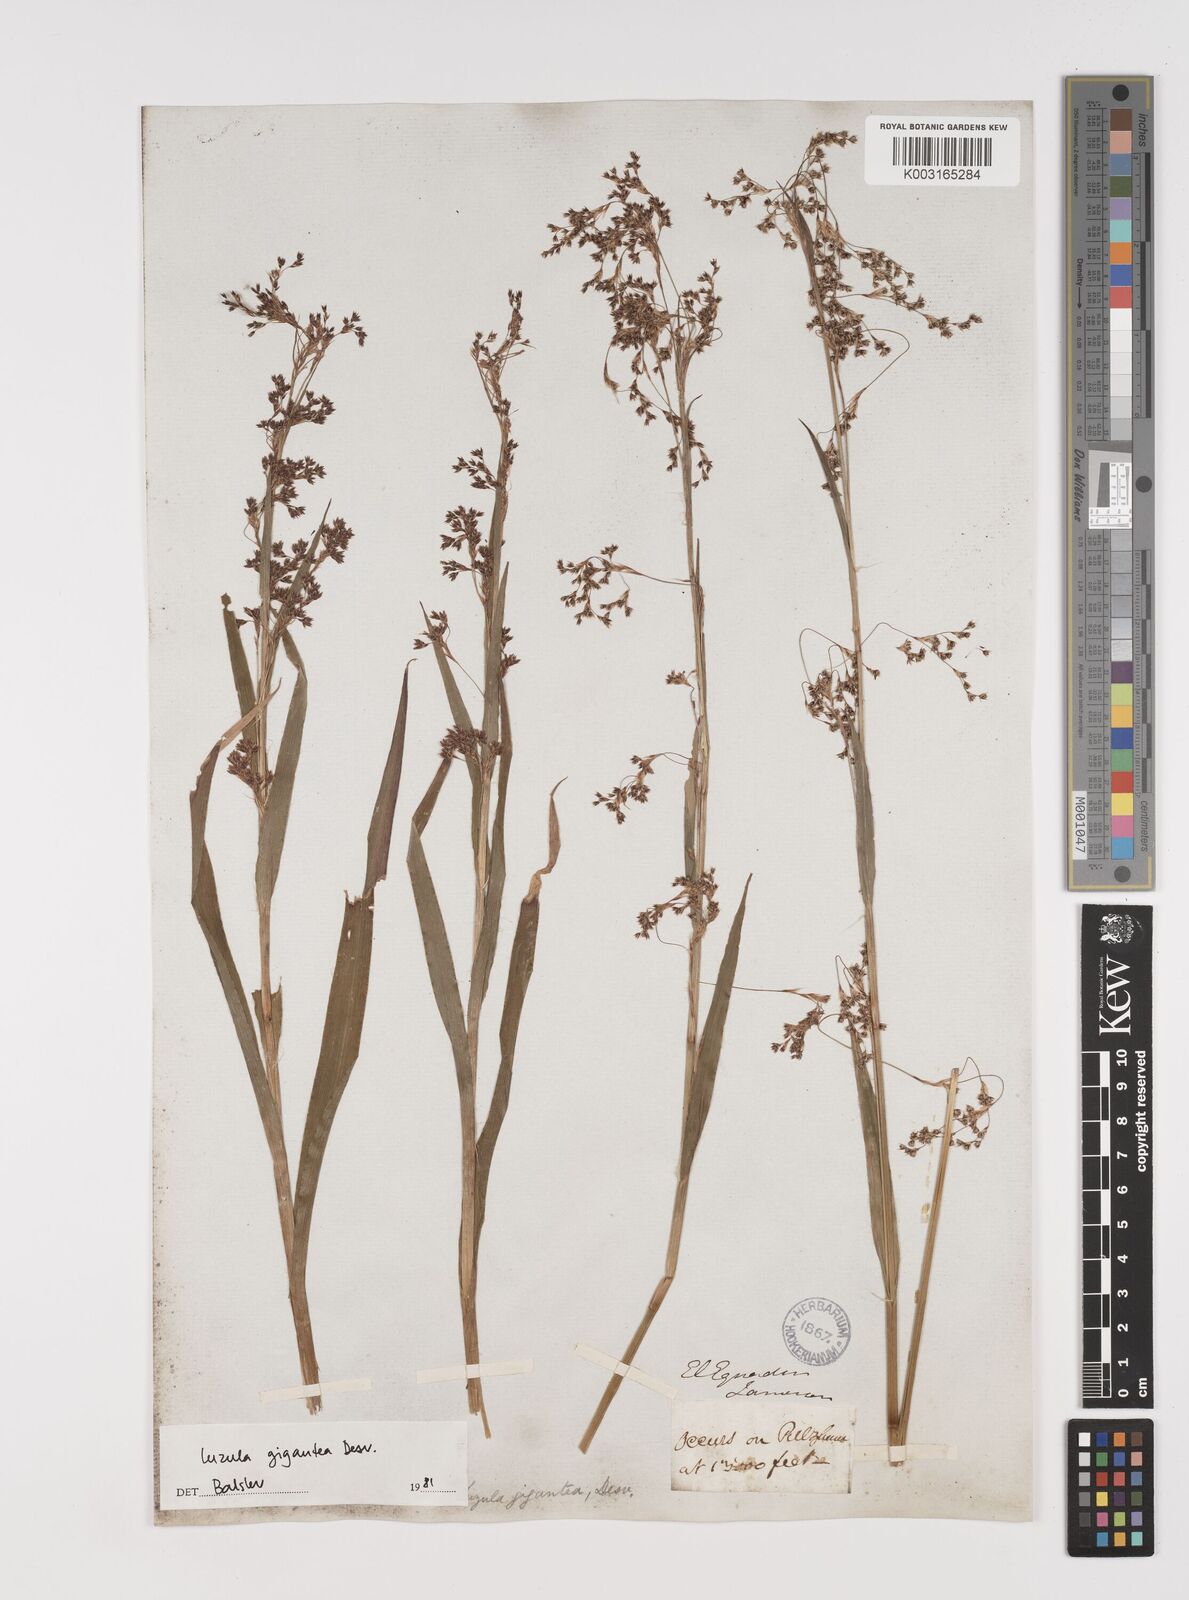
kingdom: Plantae
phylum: Tracheophyta
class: Liliopsida
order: Poales
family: Juncaceae
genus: Luzula
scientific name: Luzula gigantea
